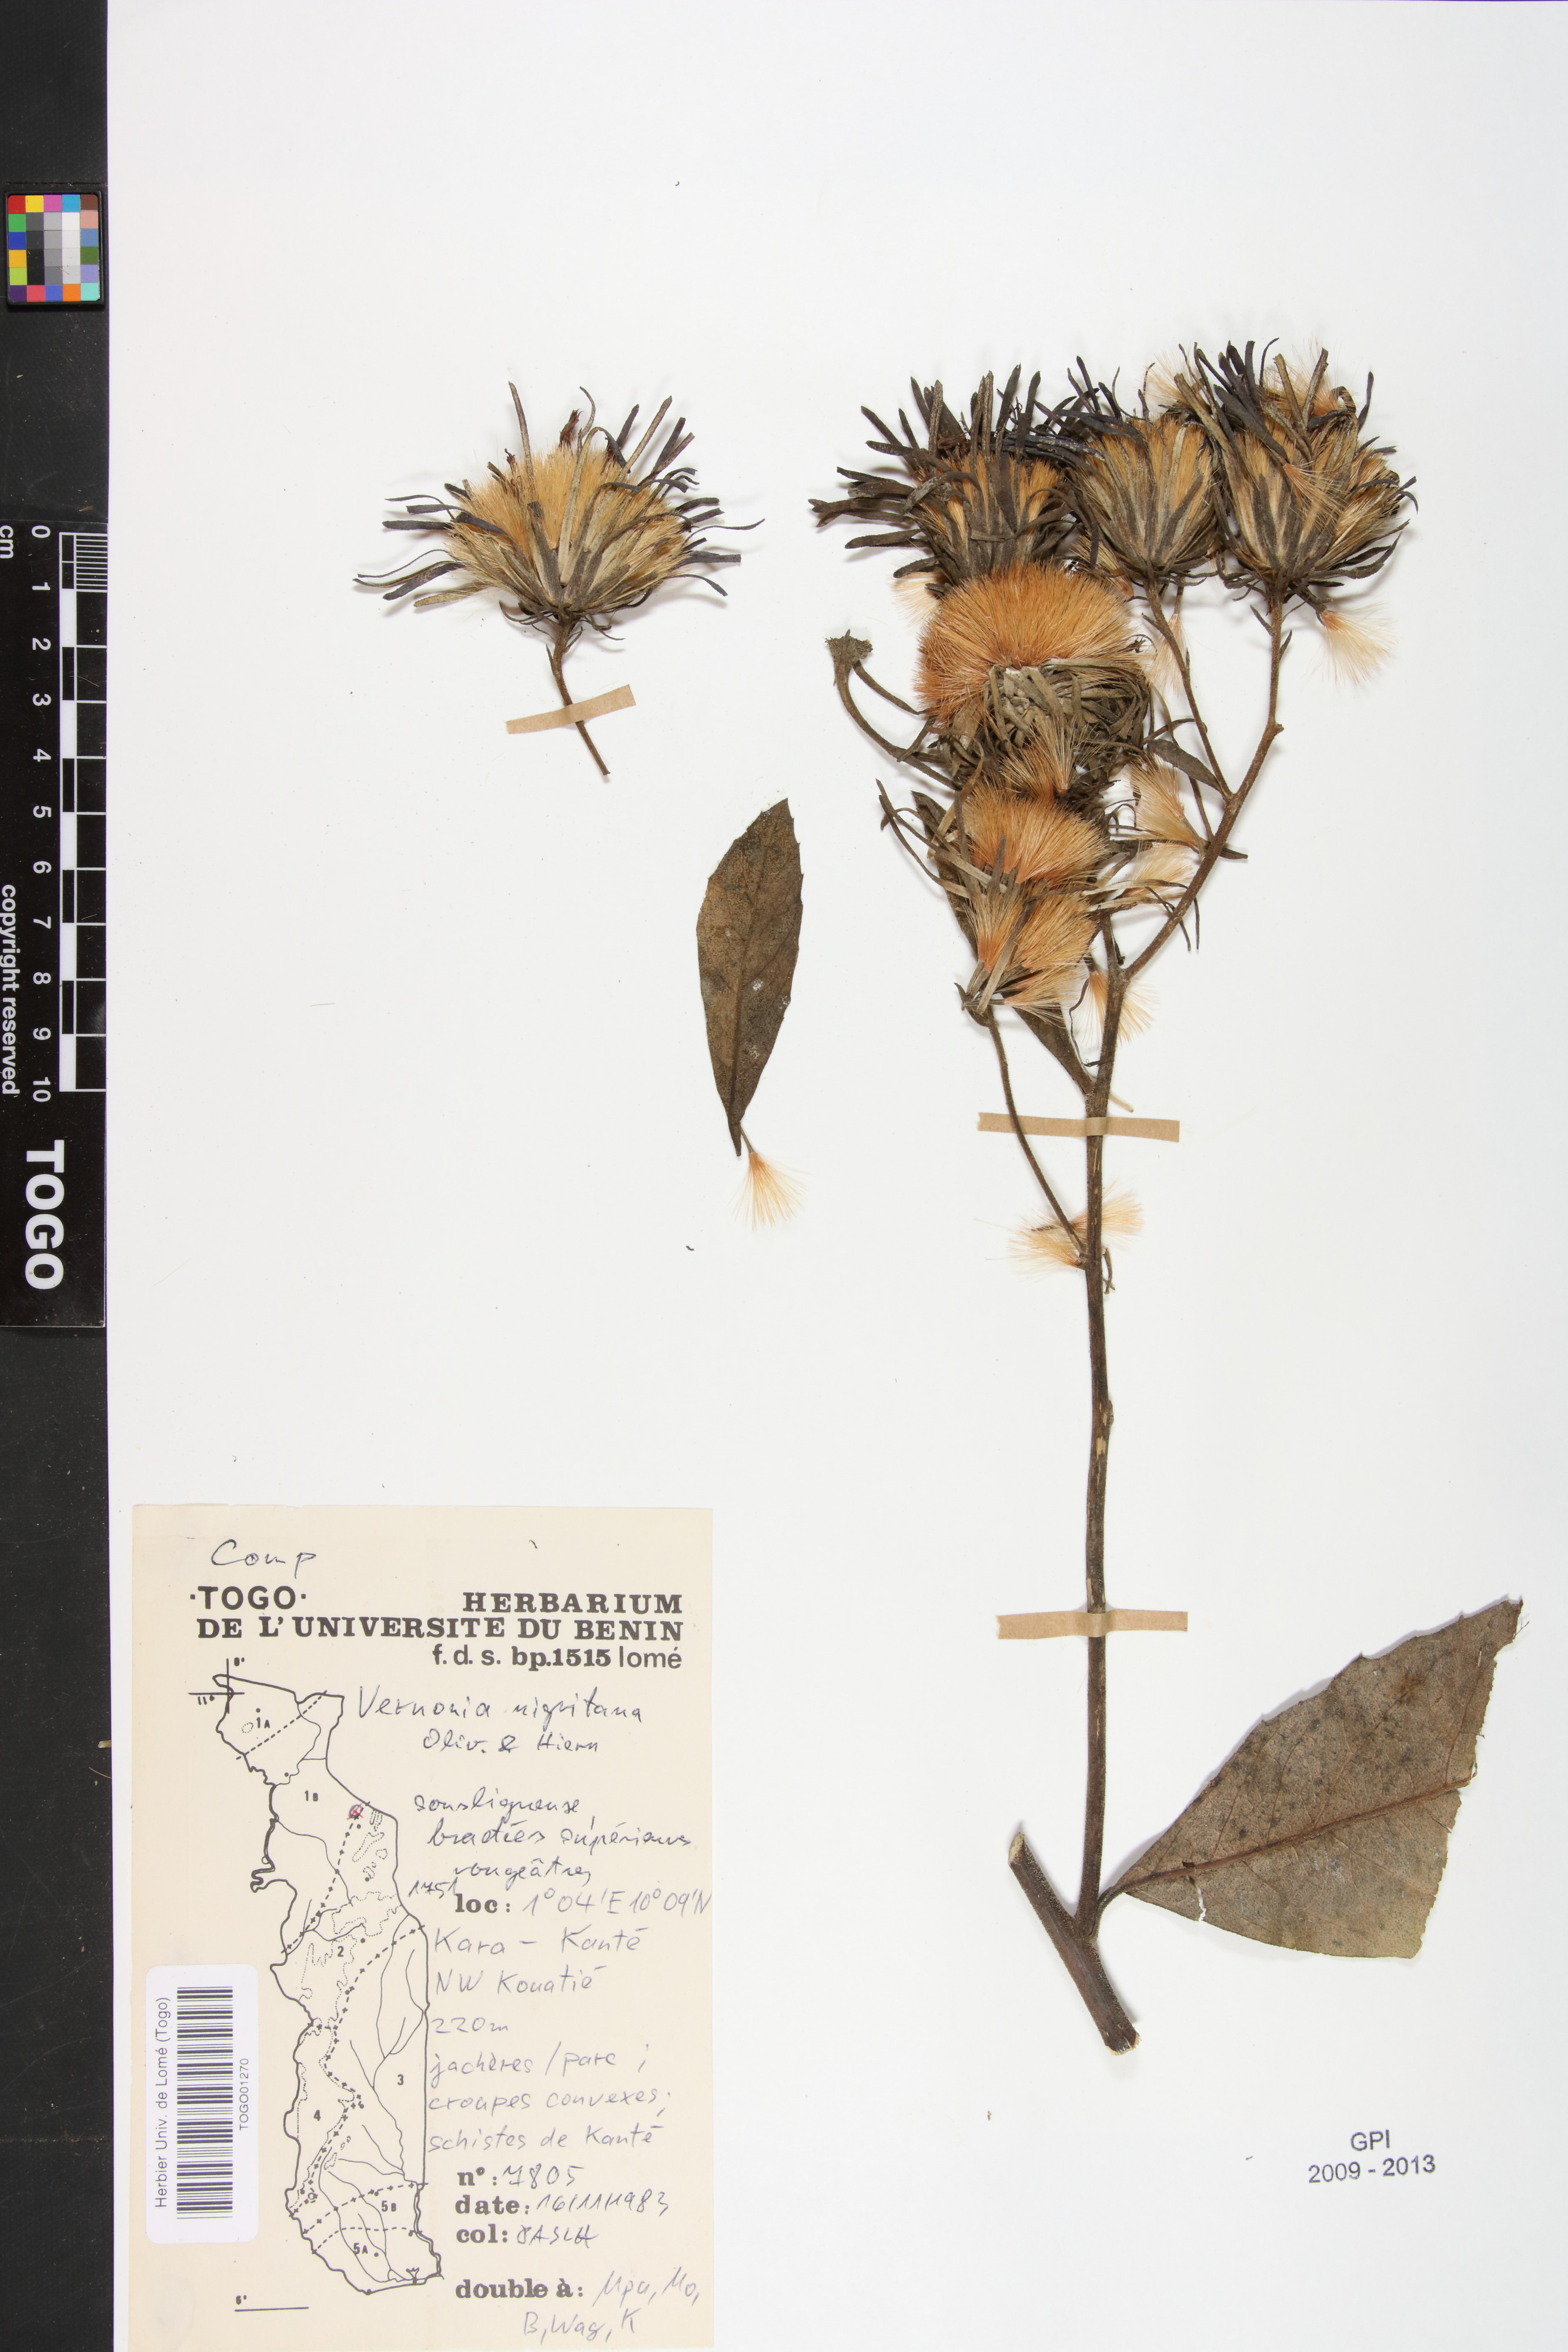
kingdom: Plantae
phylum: Tracheophyta
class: Magnoliopsida
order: Asterales
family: Asteraceae
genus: Linzia
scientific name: Linzia nigritiana
